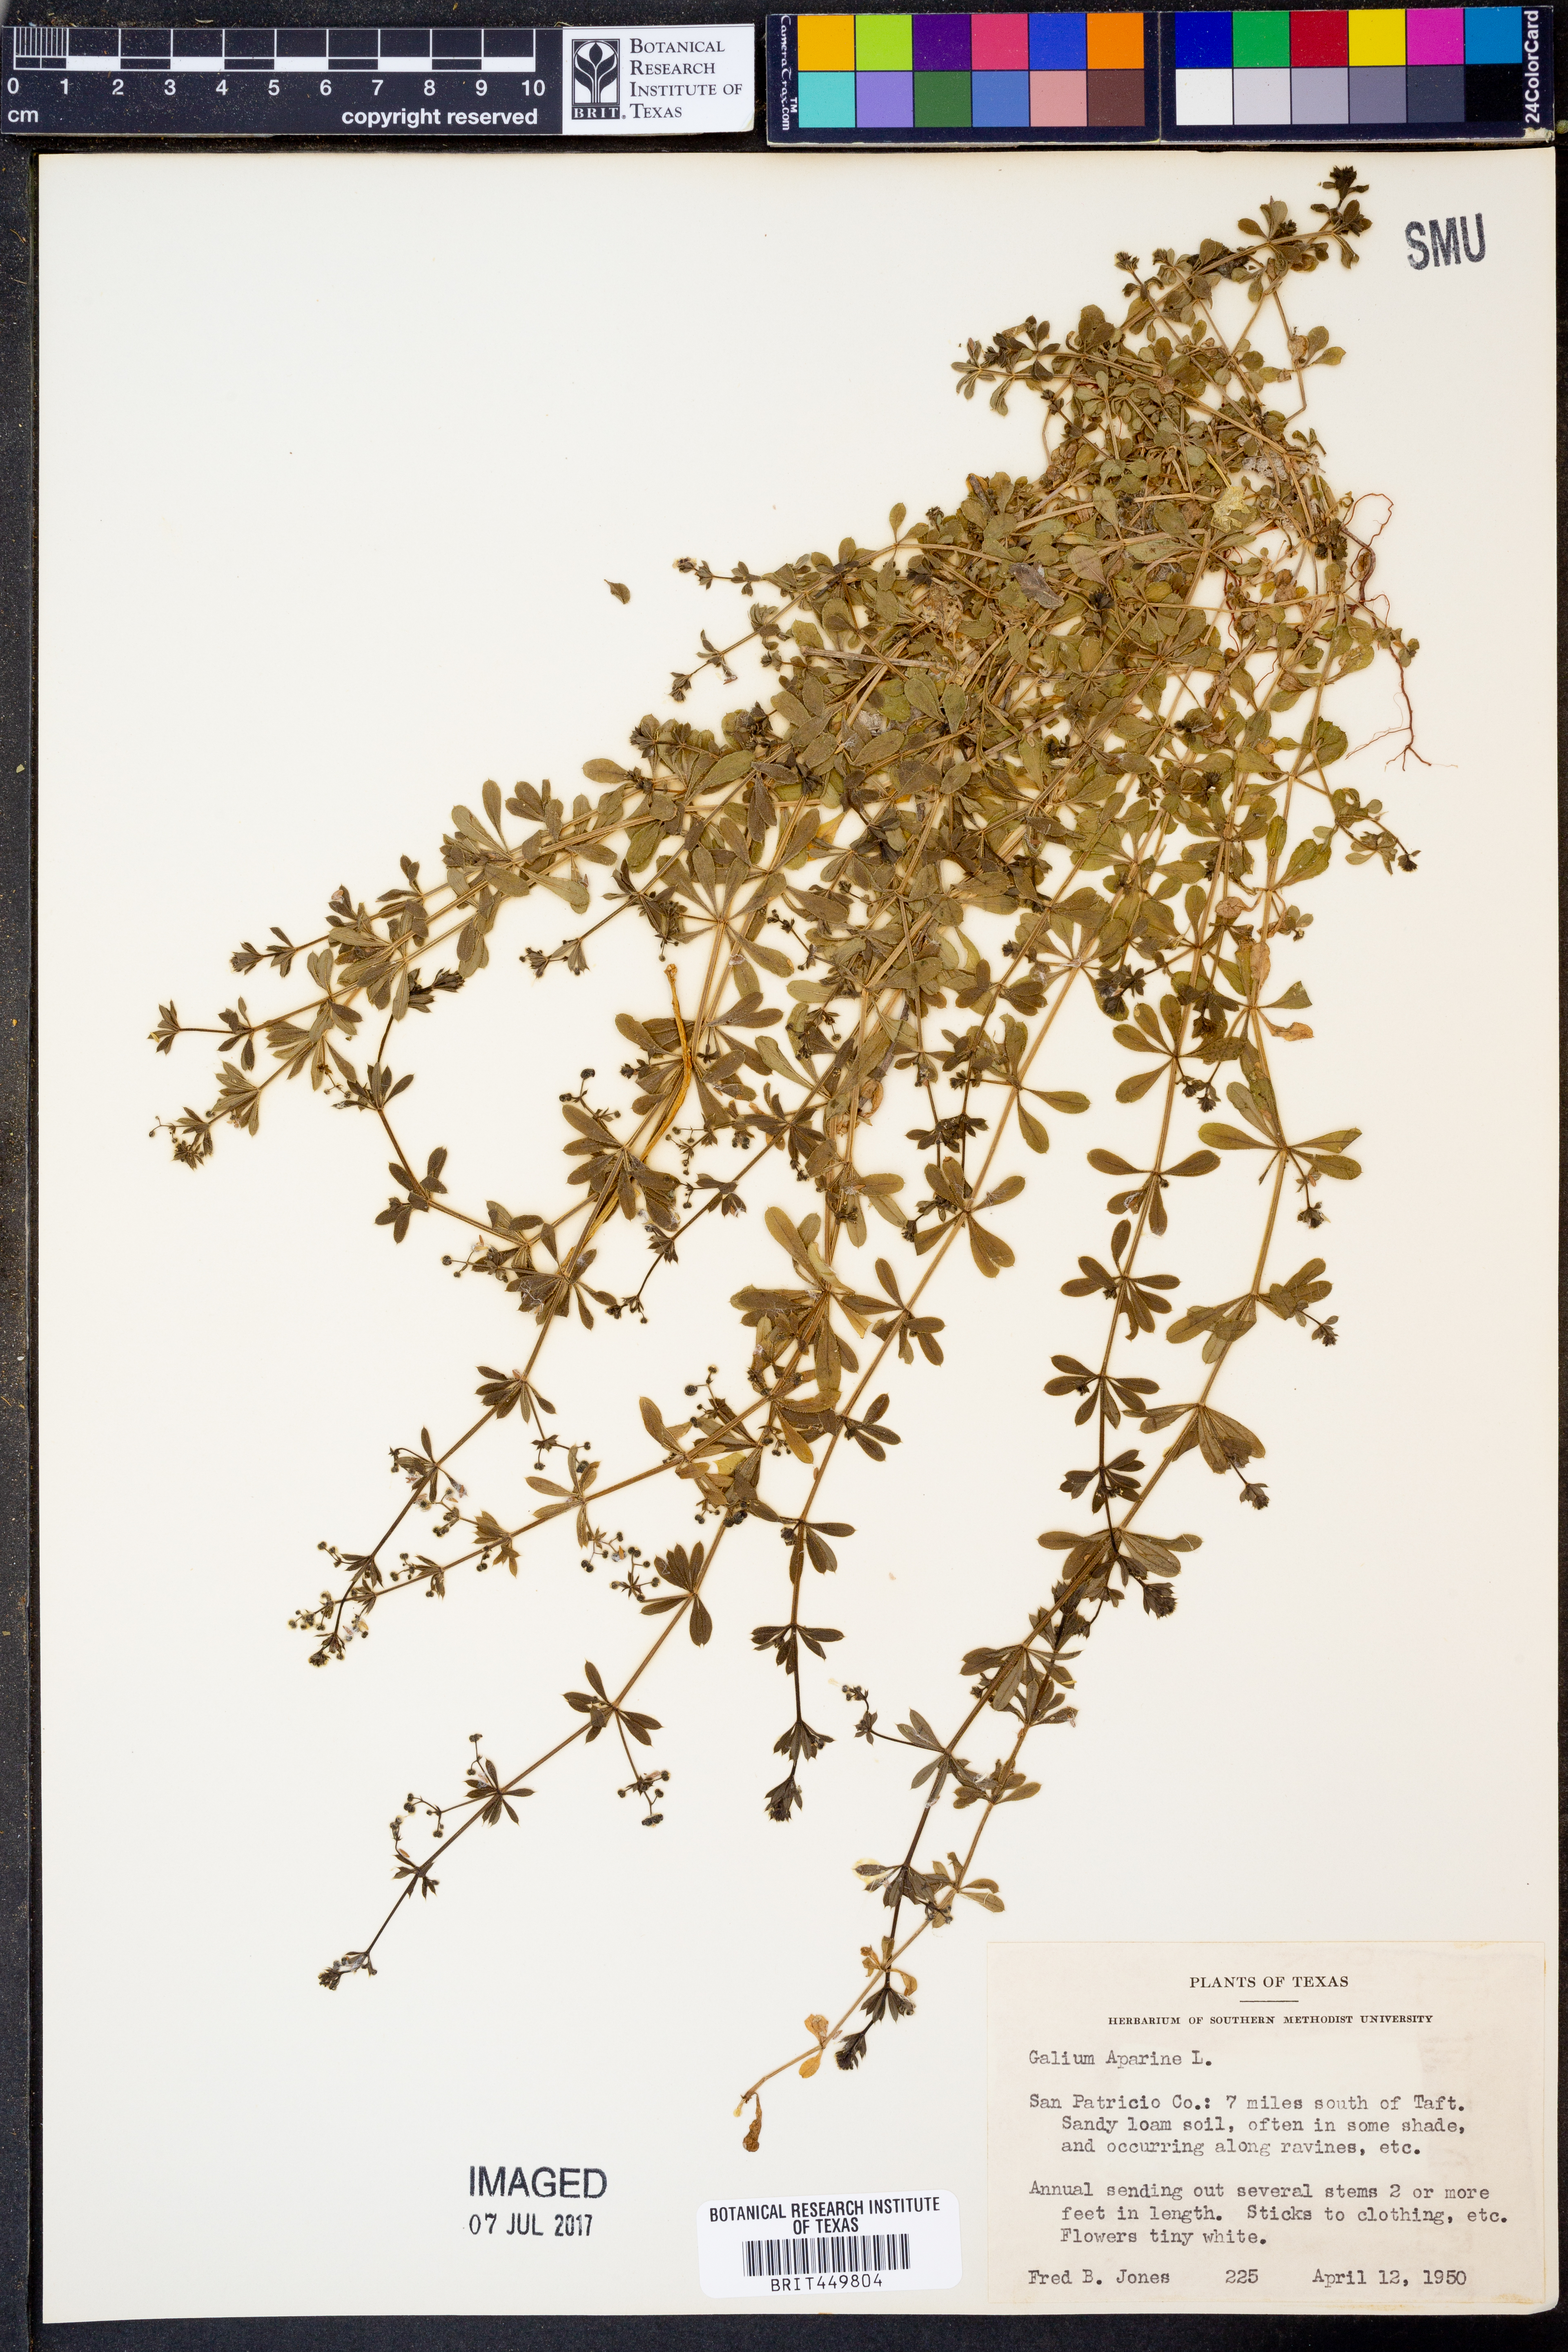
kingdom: Plantae
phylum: Tracheophyta
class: Magnoliopsida
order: Gentianales
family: Rubiaceae
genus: Galium
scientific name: Galium aparine
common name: Cleavers
